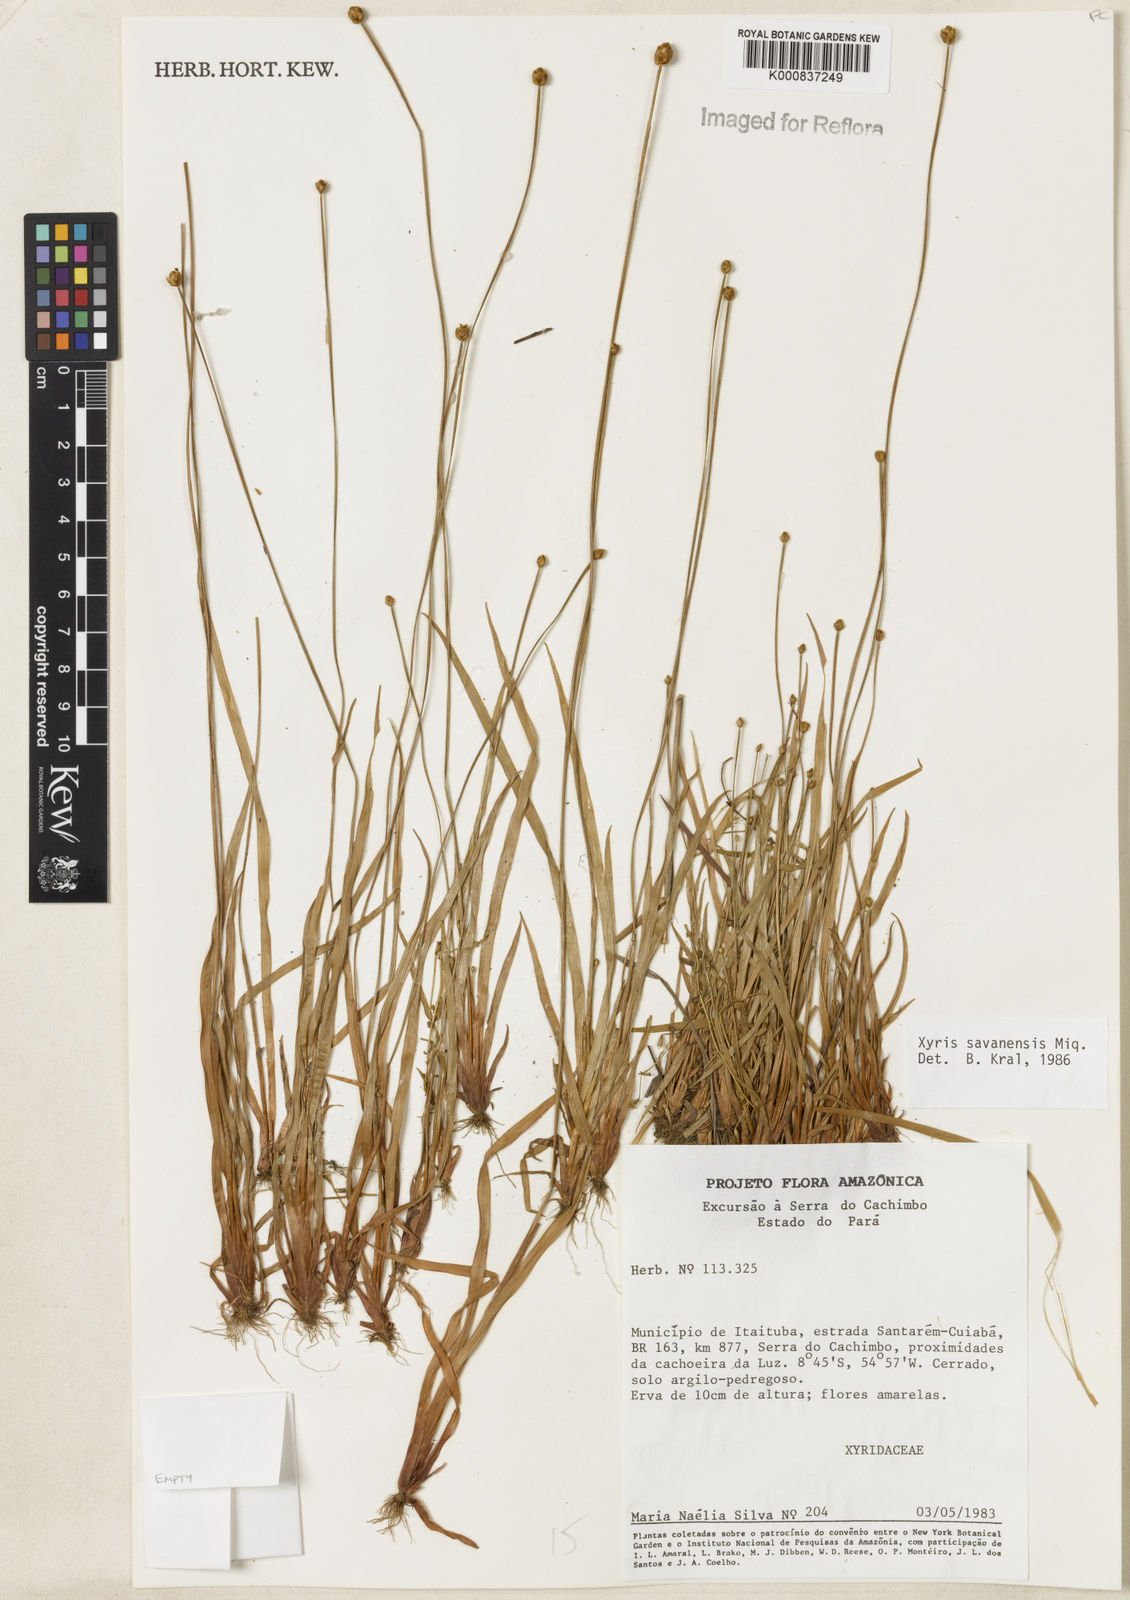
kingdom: Plantae
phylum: Tracheophyta
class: Liliopsida
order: Poales
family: Xyridaceae
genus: Xyris
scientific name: Xyris savanensis
